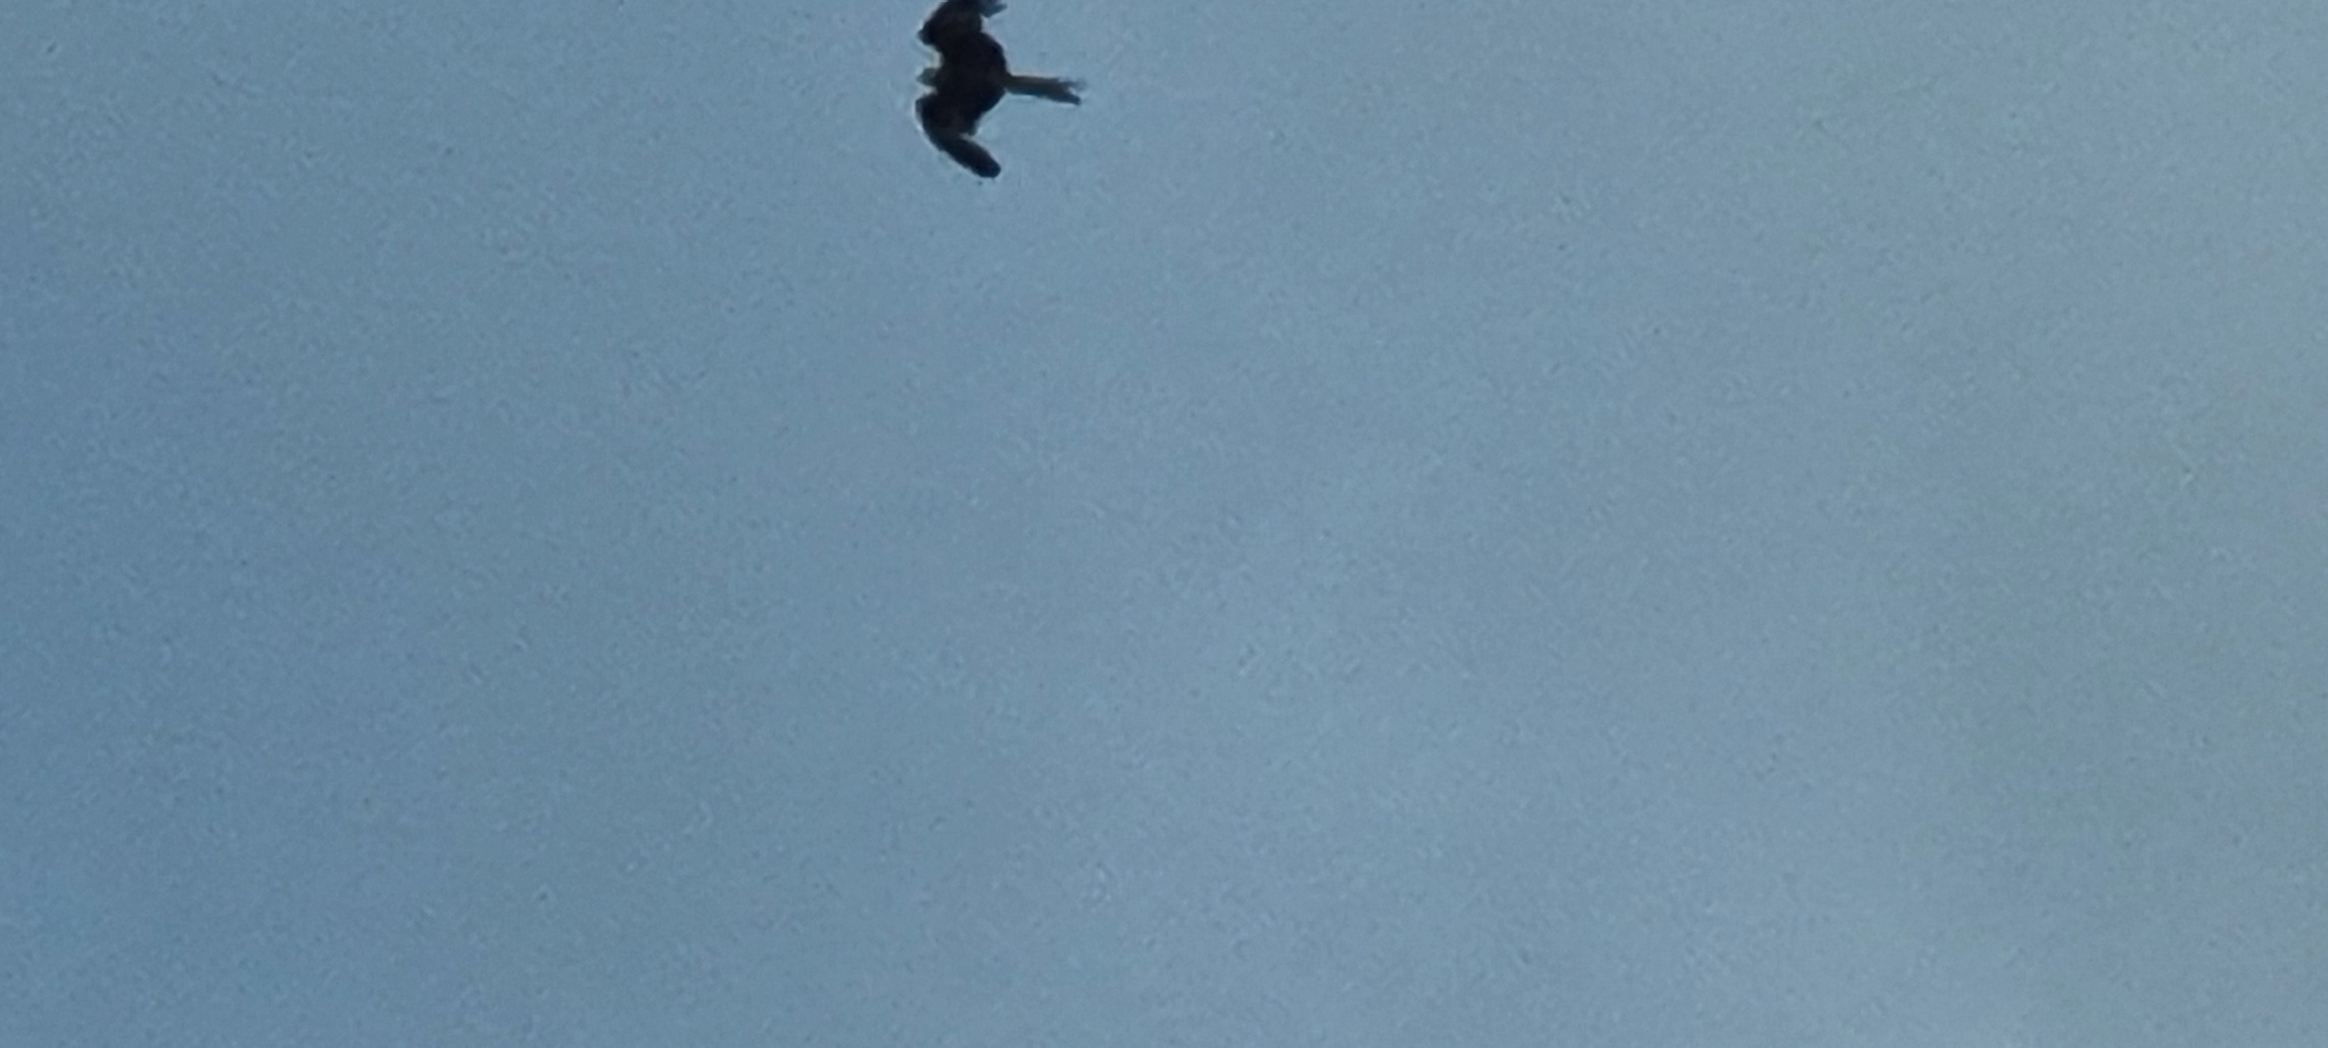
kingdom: Animalia
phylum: Chordata
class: Aves
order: Accipitriformes
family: Accipitridae
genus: Milvus
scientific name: Milvus milvus
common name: Rød glente
